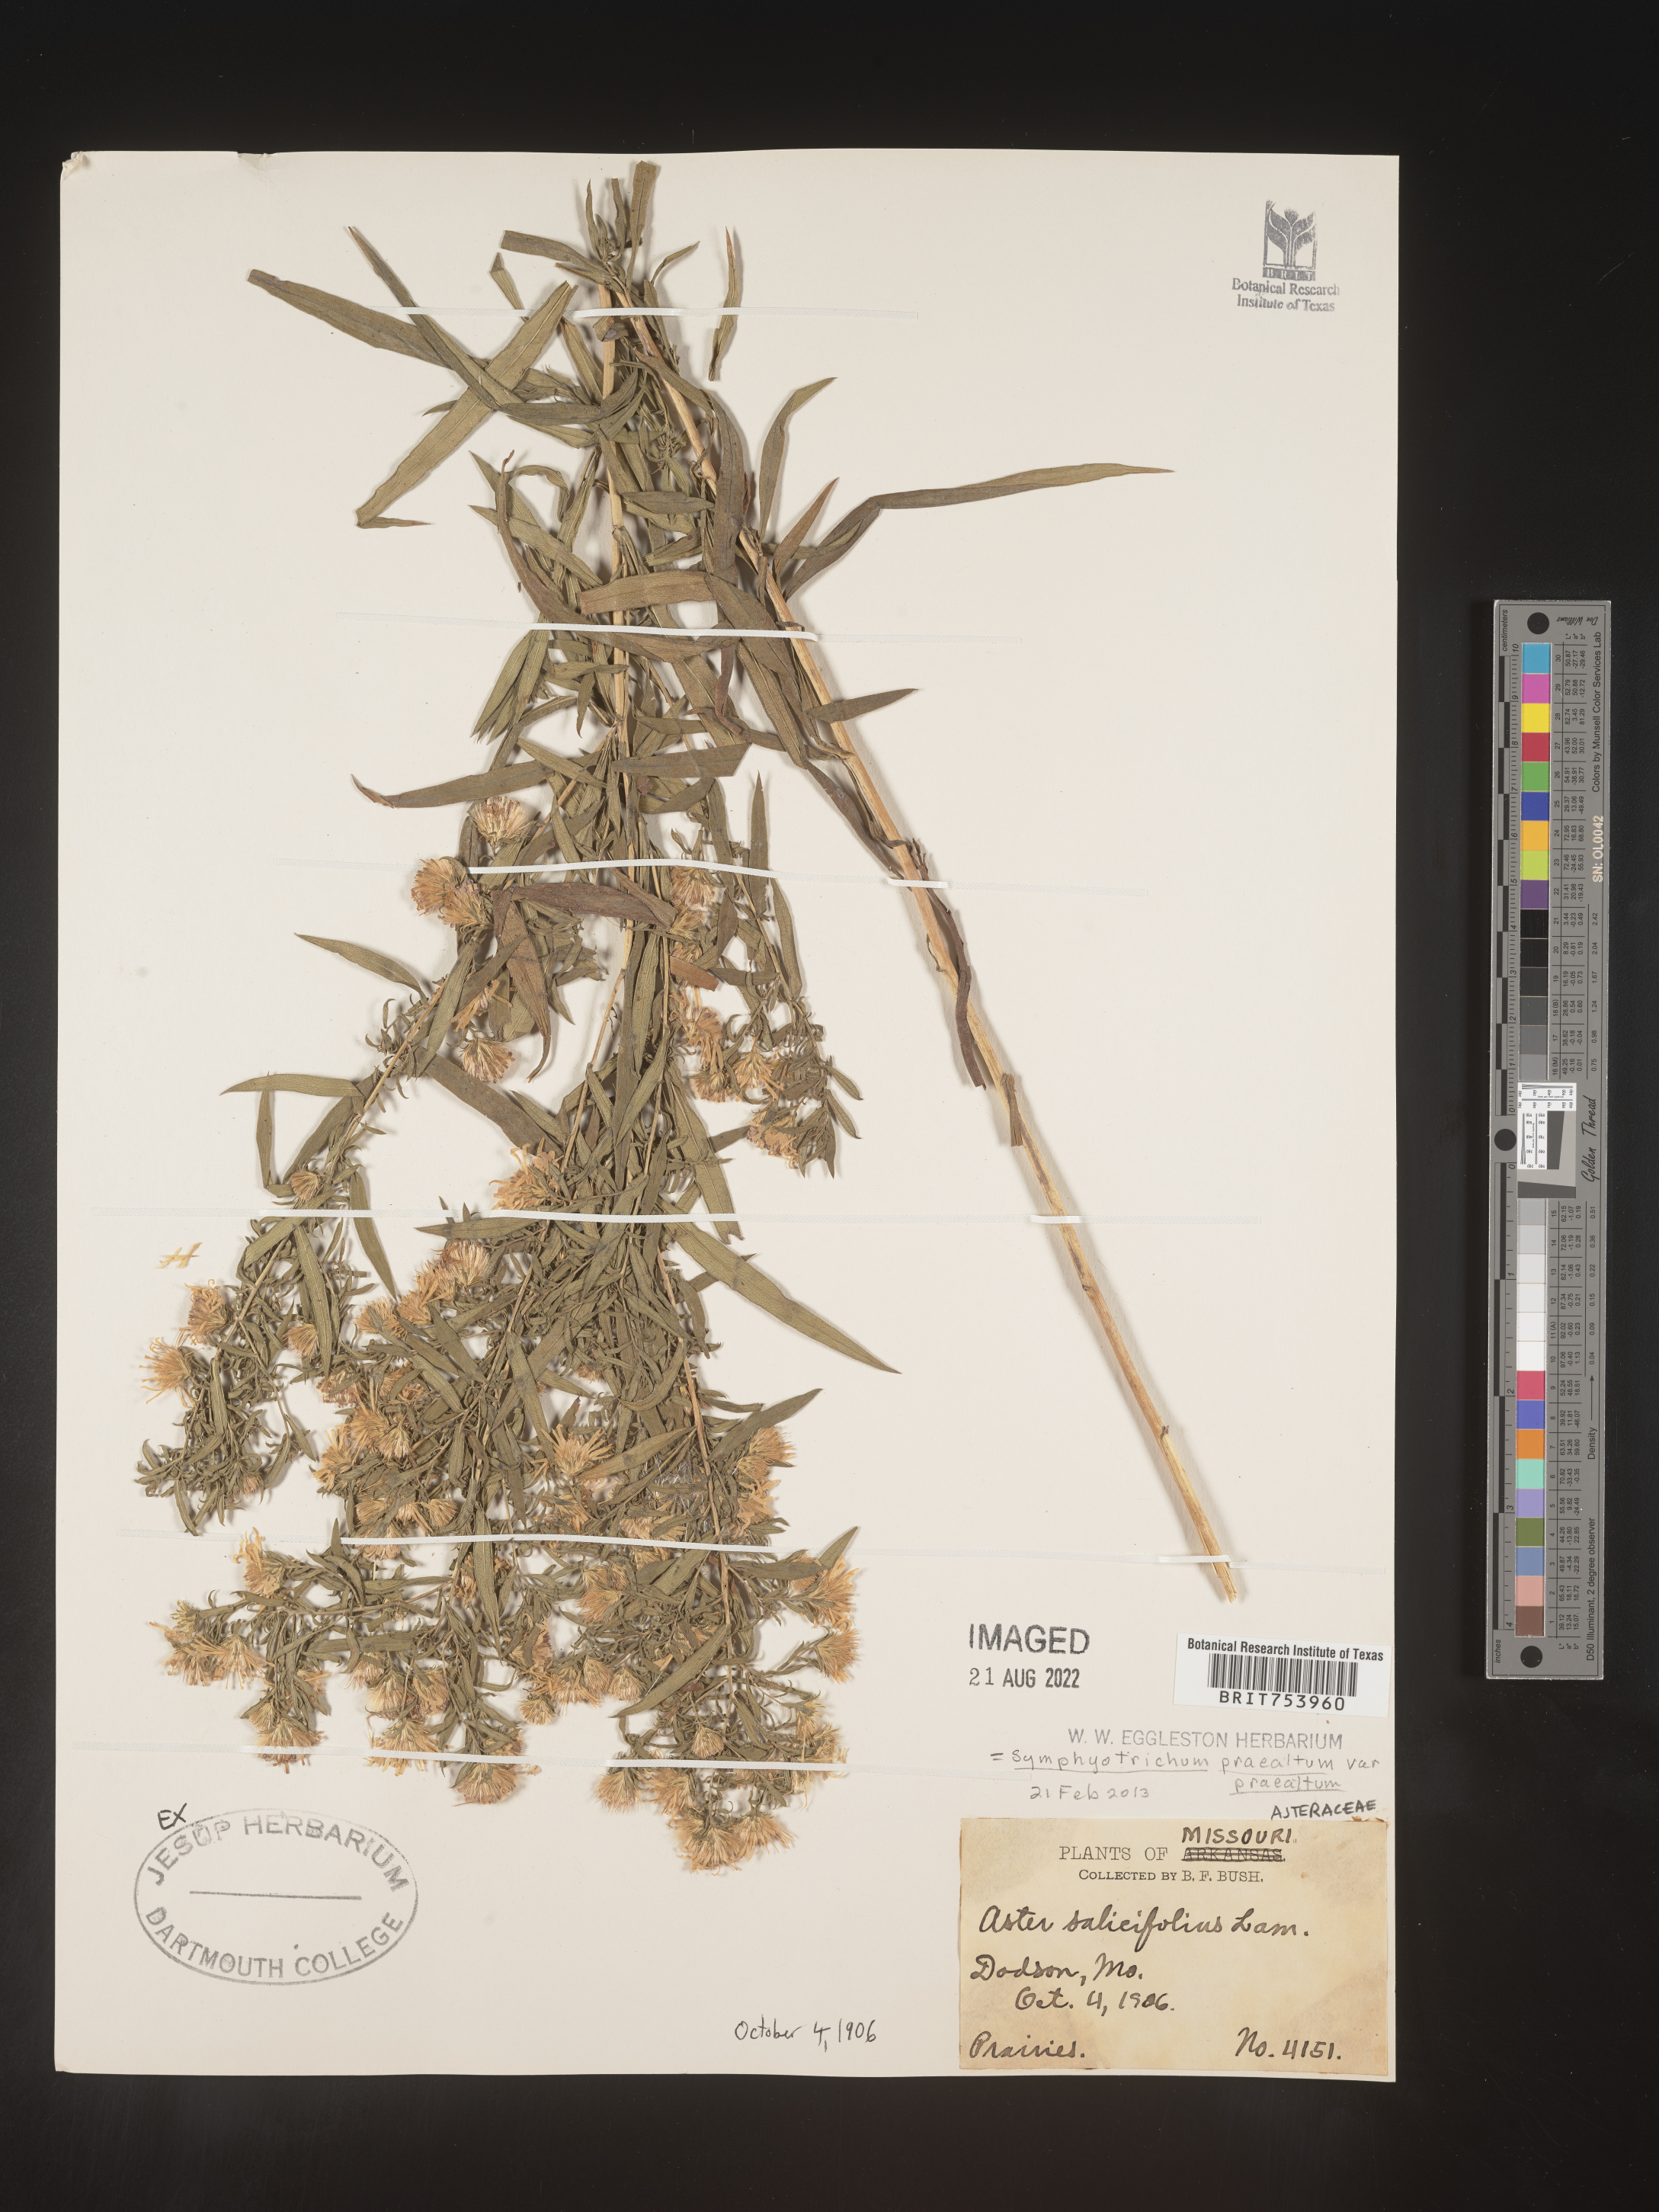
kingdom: Plantae
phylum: Tracheophyta
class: Magnoliopsida
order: Asterales
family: Asteraceae
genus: Symphyotrichum
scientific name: Symphyotrichum praealtum
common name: Willow aster
